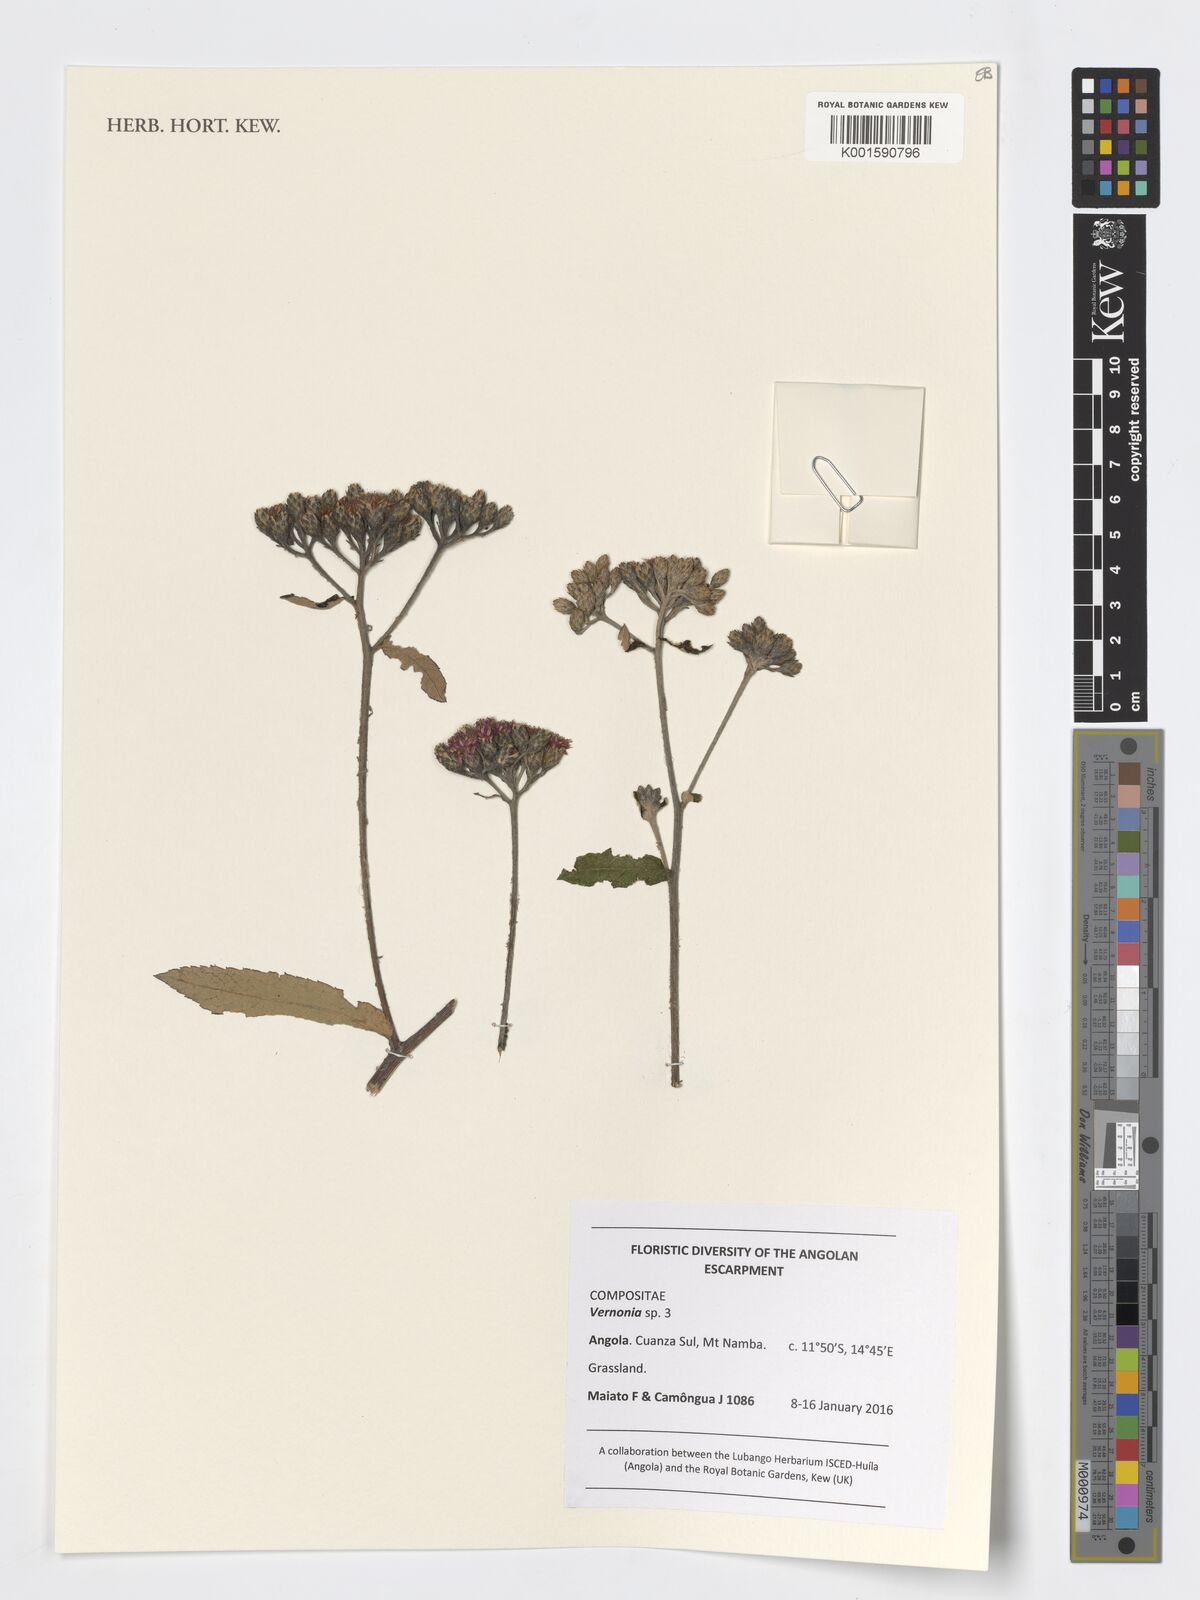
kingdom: Plantae
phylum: Tracheophyta
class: Magnoliopsida
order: Asterales
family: Asteraceae
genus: Vernonia
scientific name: Vernonia
